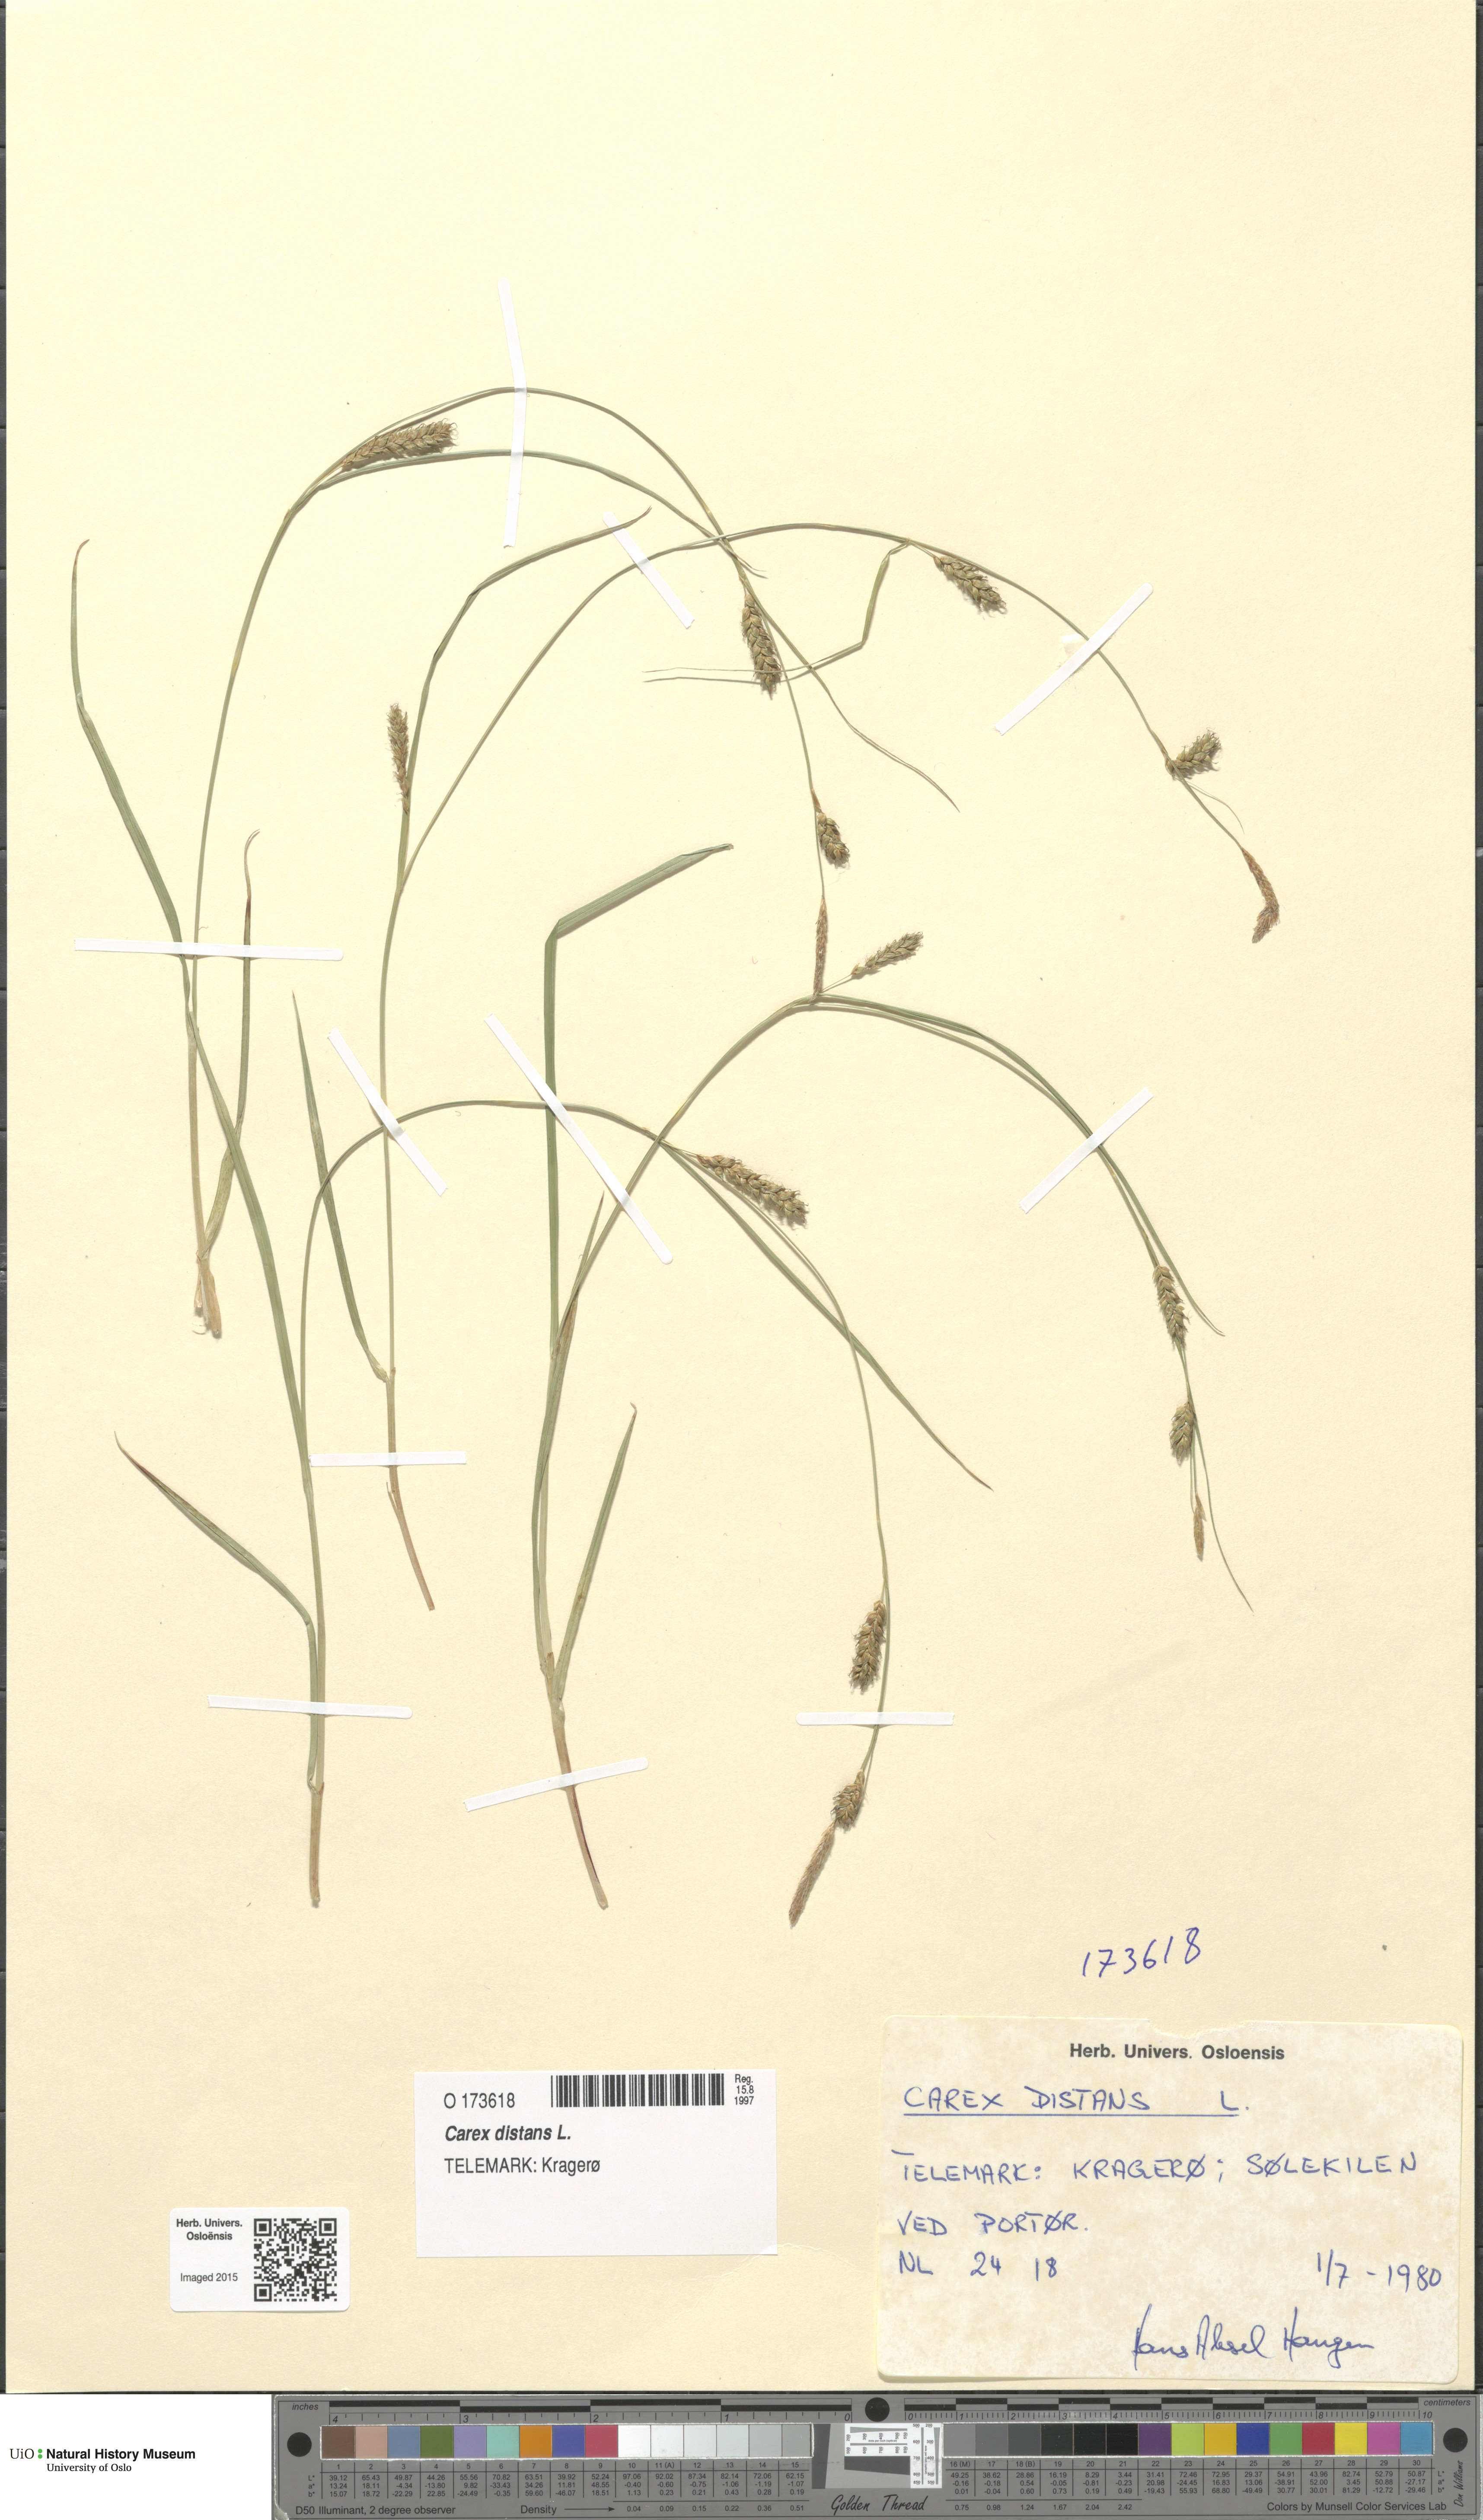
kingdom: Plantae
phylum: Tracheophyta
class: Liliopsida
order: Poales
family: Cyperaceae
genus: Carex
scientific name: Carex distans
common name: Distant sedge
